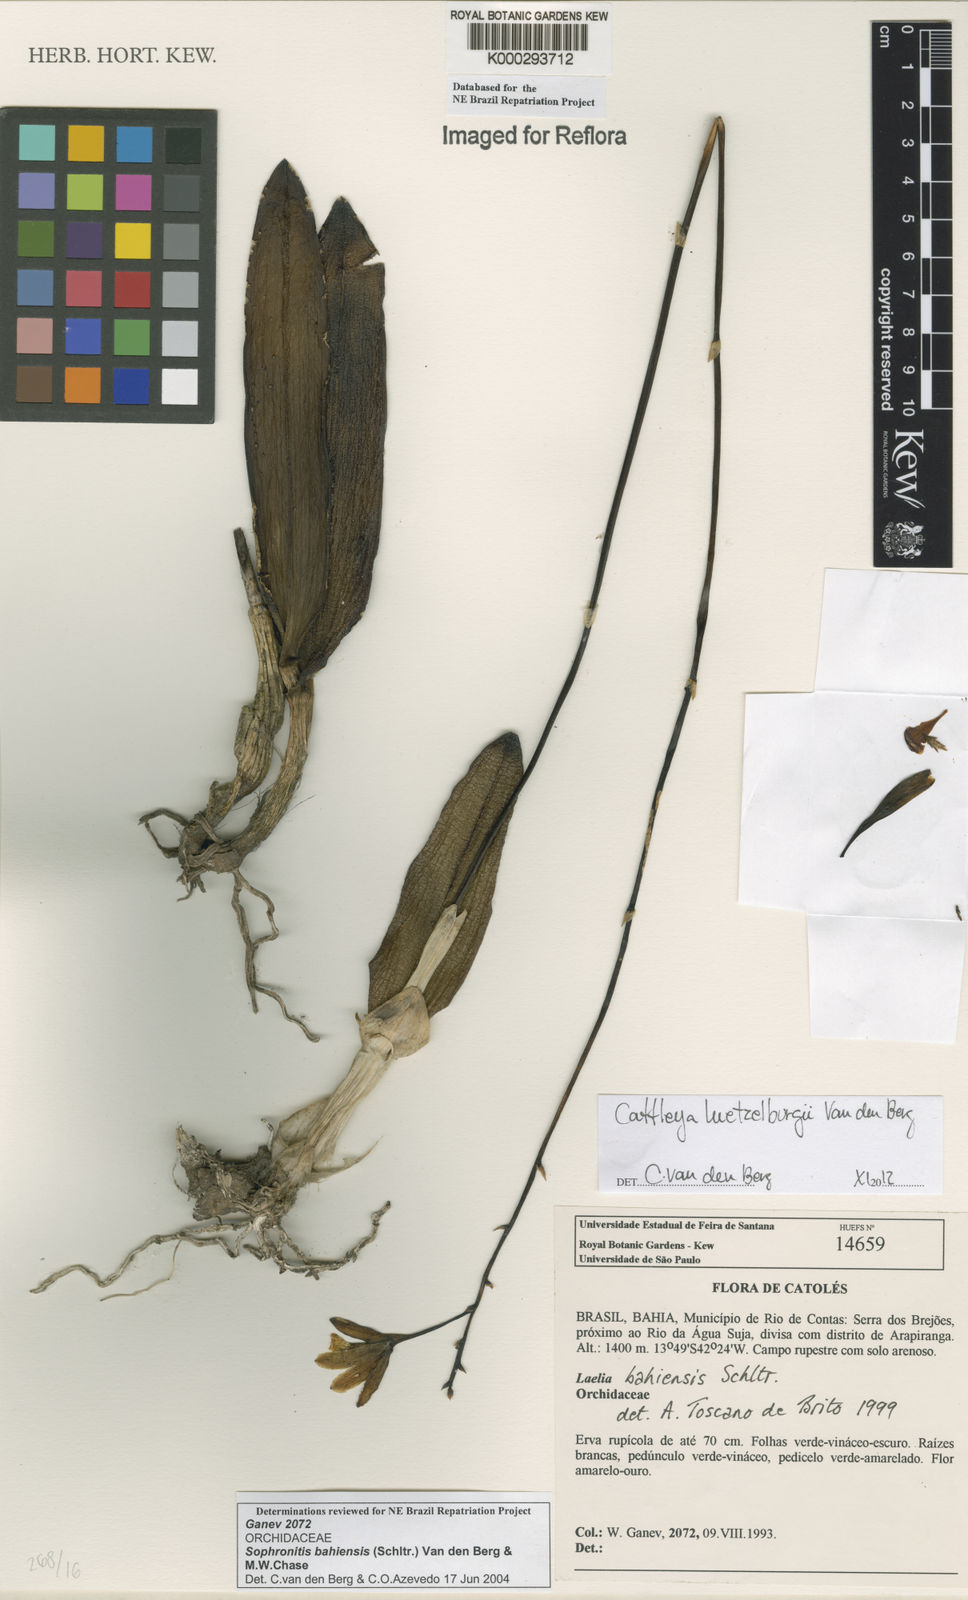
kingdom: Plantae
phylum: Tracheophyta
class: Liliopsida
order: Asparagales
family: Orchidaceae
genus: Cattleya
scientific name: Cattleya luetzelburgii
